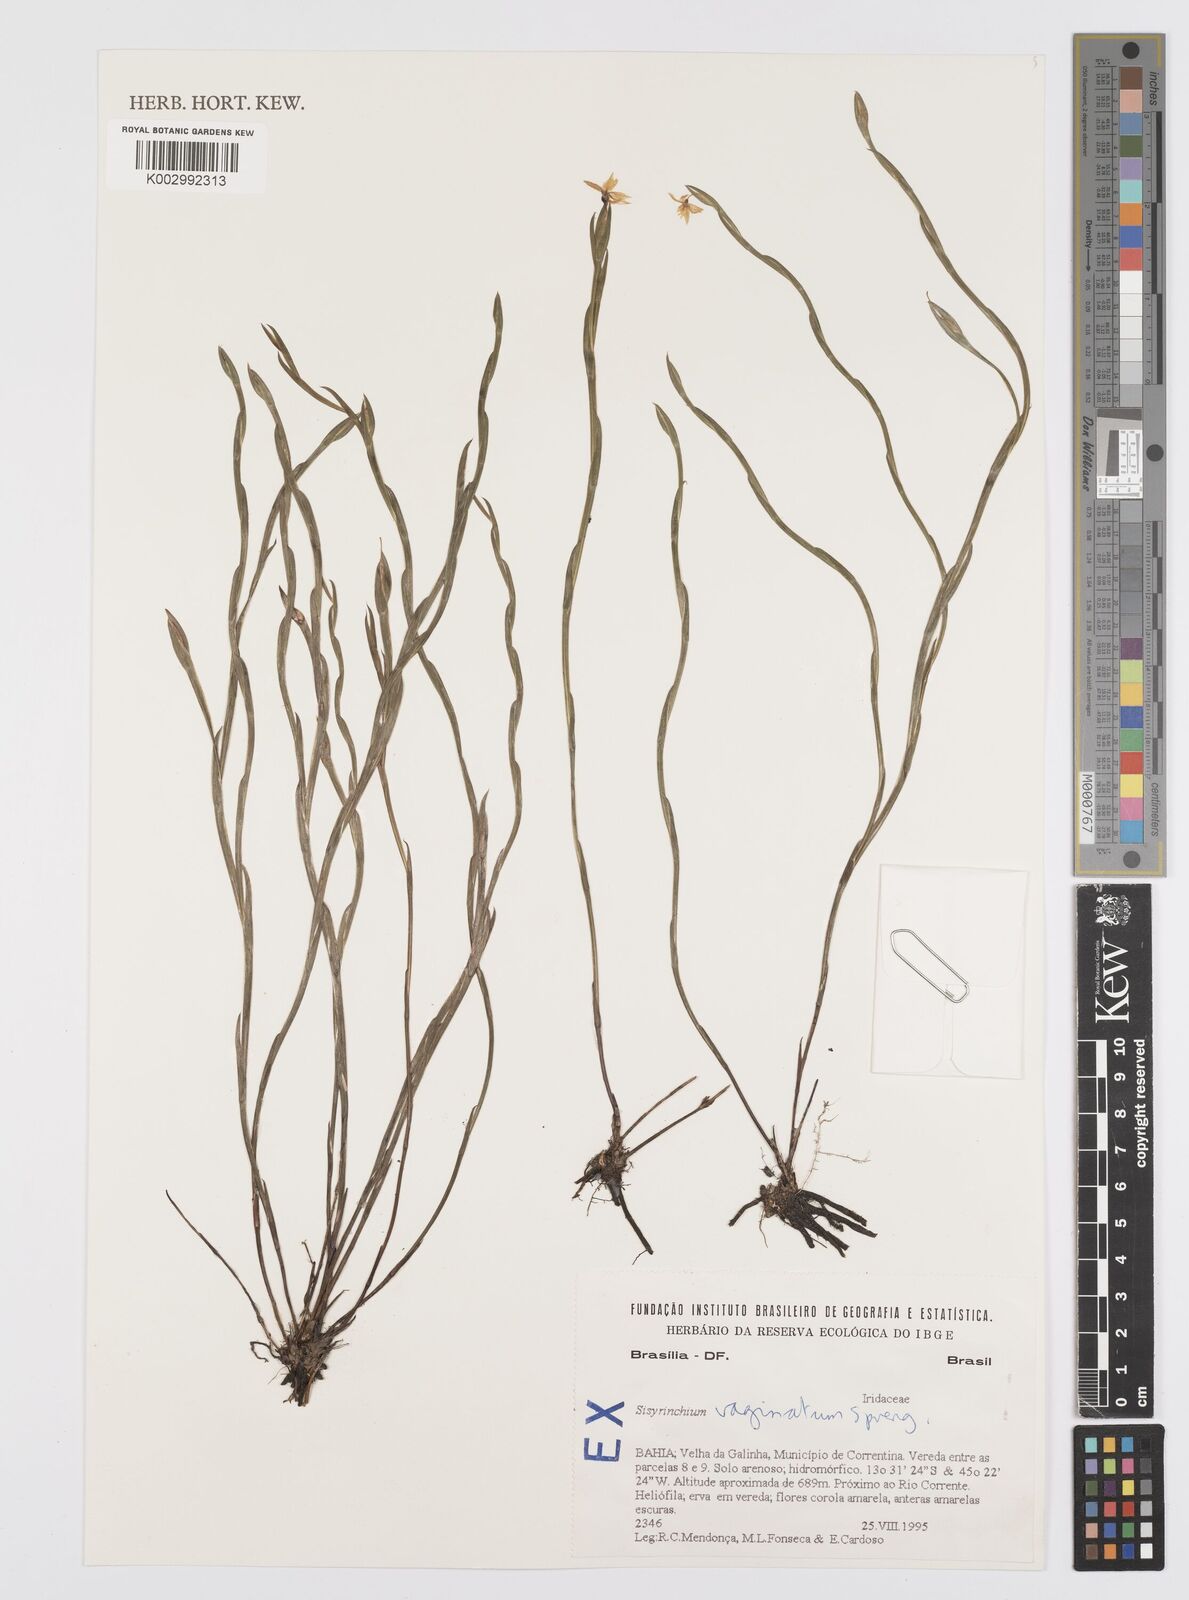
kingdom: Plantae
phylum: Tracheophyta
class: Liliopsida
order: Asparagales
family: Iridaceae
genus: Sisyrinchium
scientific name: Sisyrinchium vaginatum
